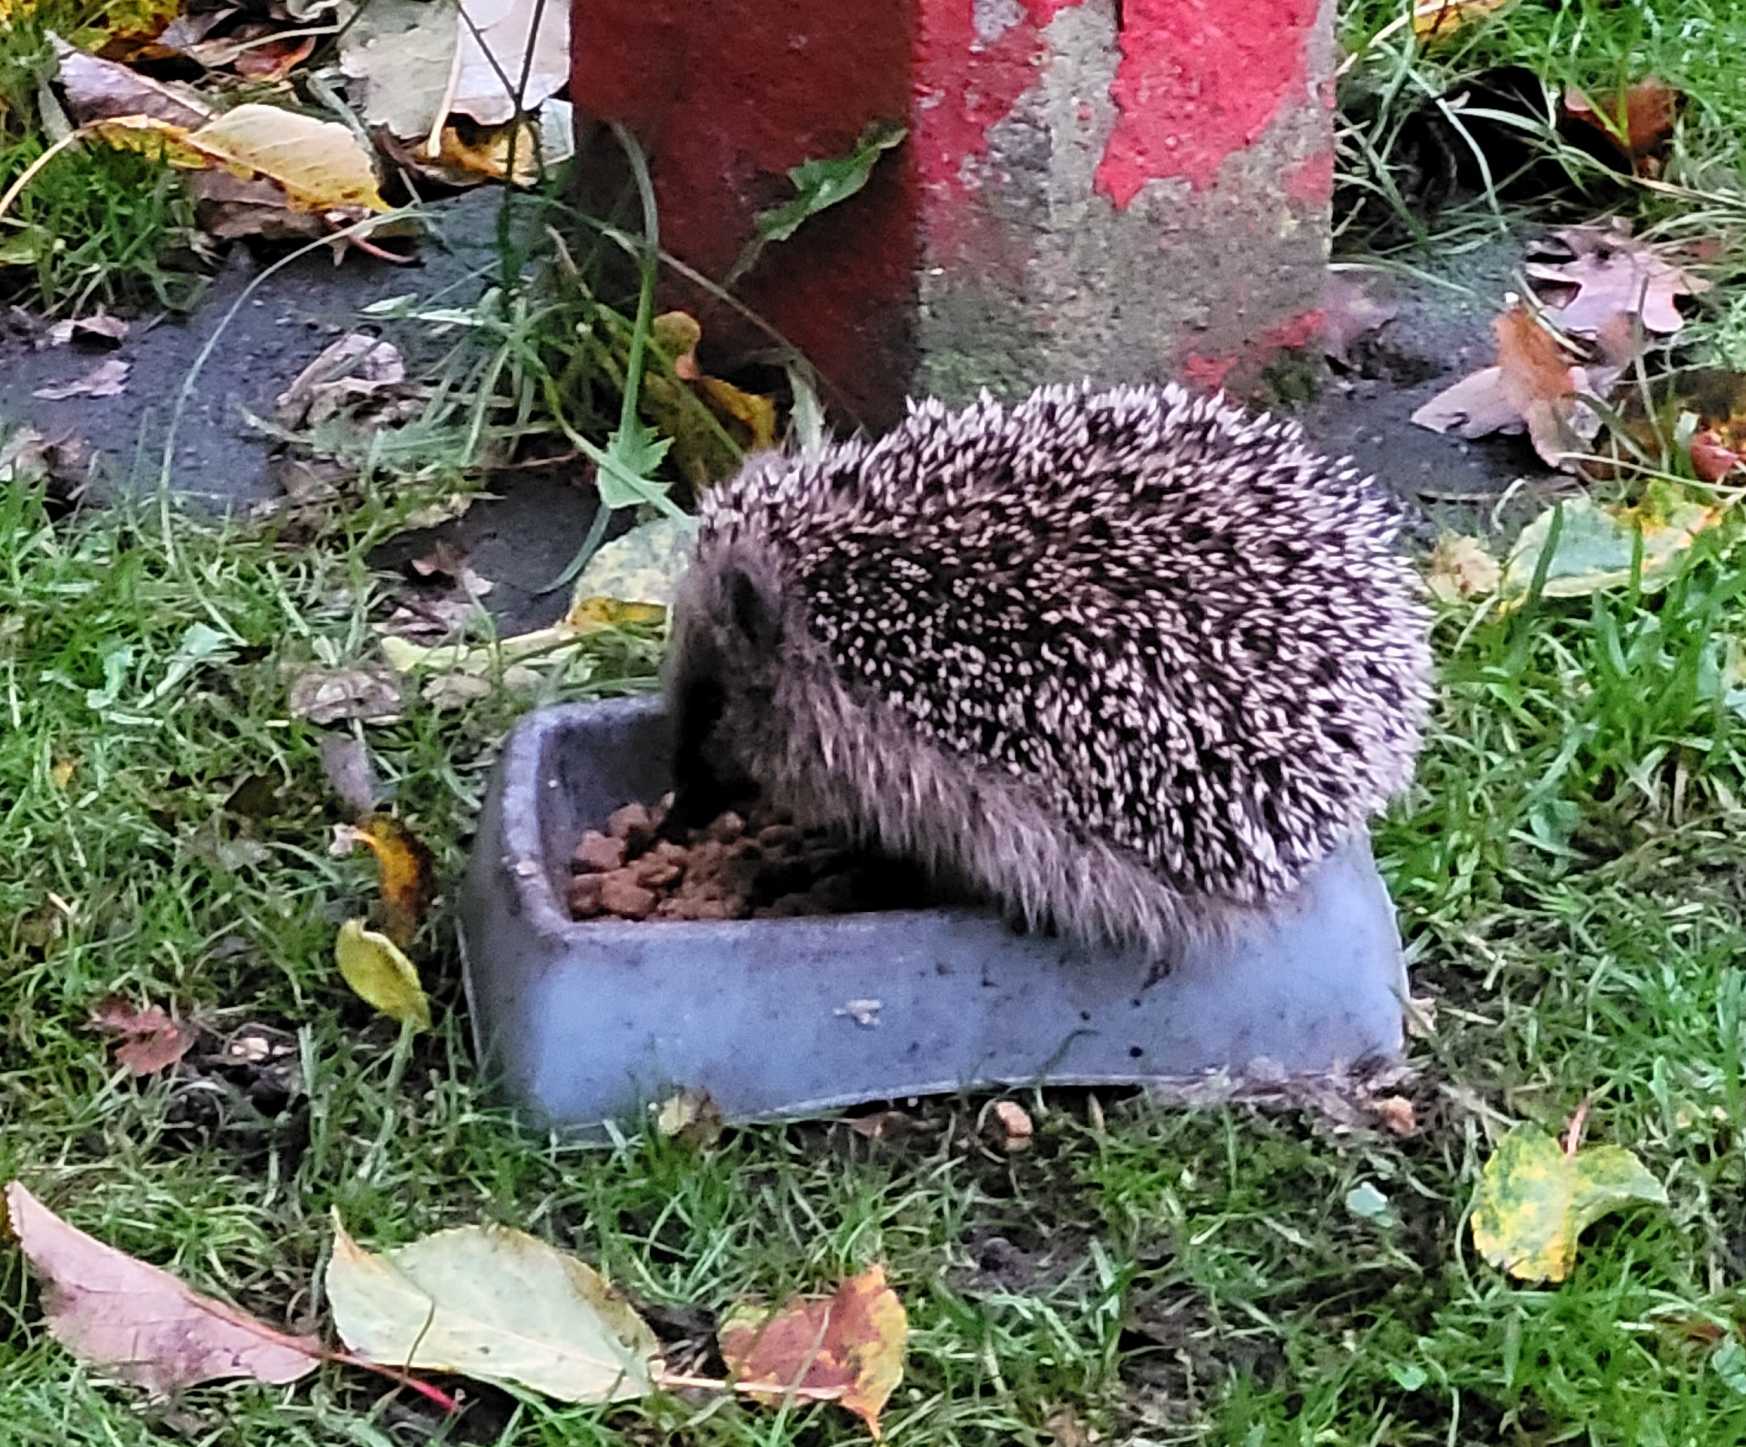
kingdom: Animalia
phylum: Chordata
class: Mammalia
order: Erinaceomorpha
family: Erinaceidae
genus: Erinaceus
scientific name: Erinaceus europaeus
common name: Pindsvin
